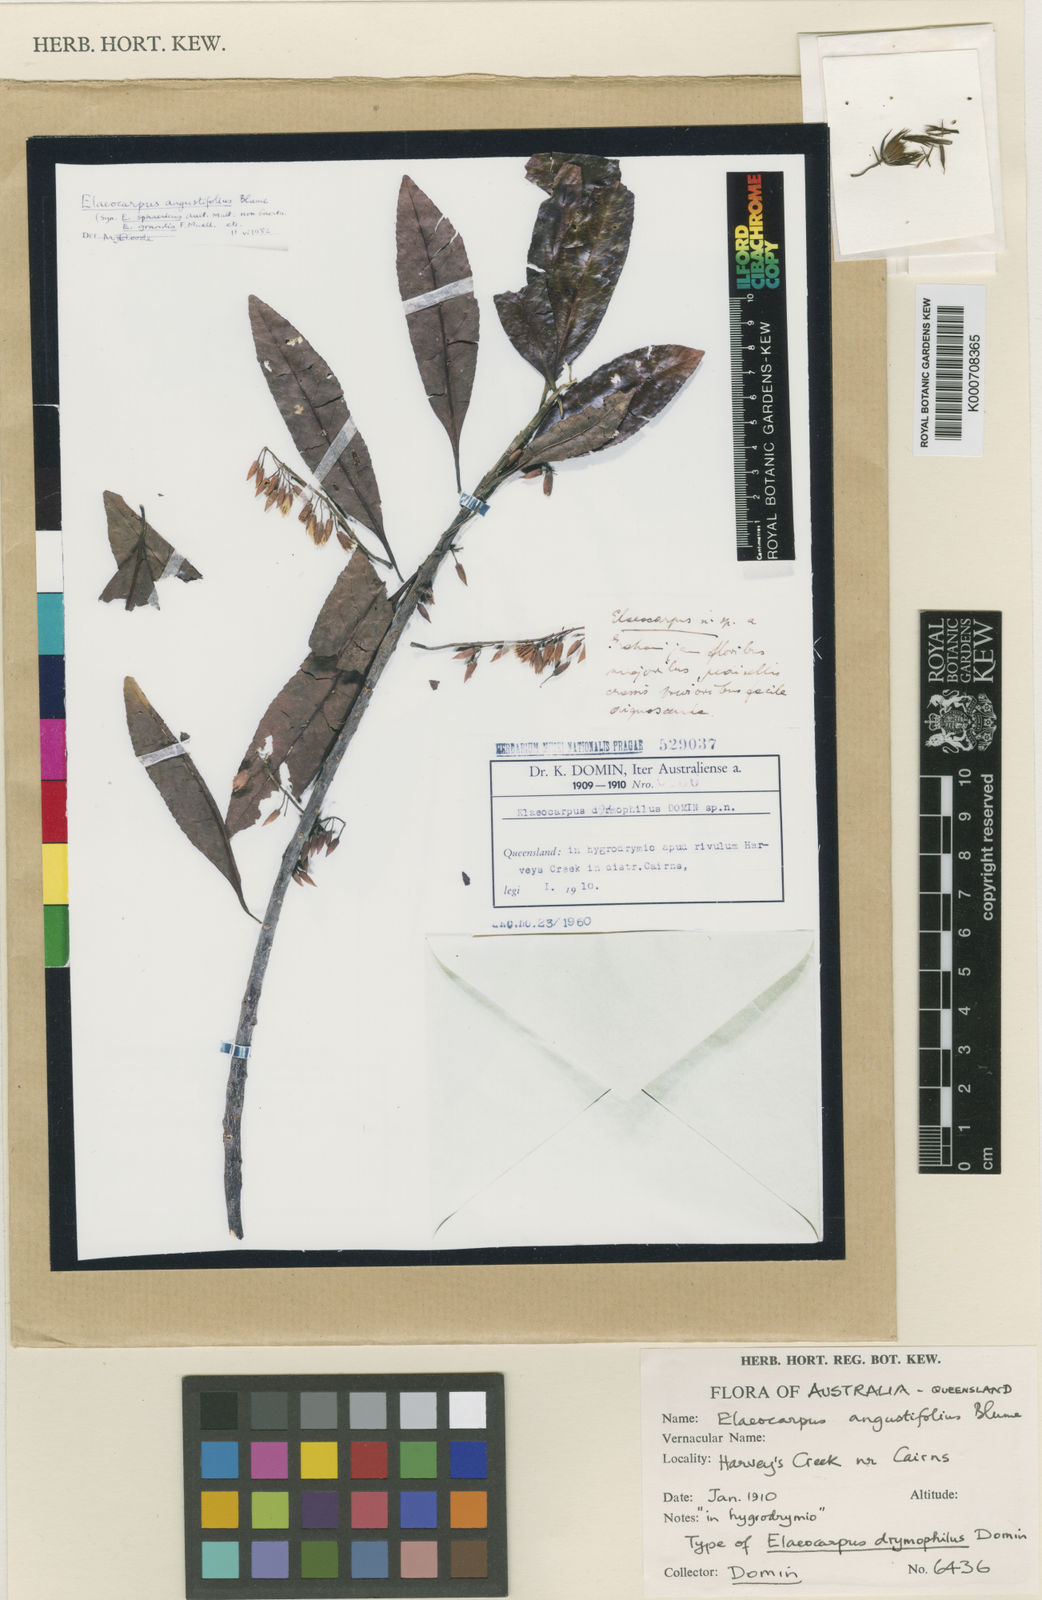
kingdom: Plantae
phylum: Tracheophyta
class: Magnoliopsida
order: Oxalidales
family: Elaeocarpaceae
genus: Elaeocarpus
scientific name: Elaeocarpus angustifolius
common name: Blue marble tree
